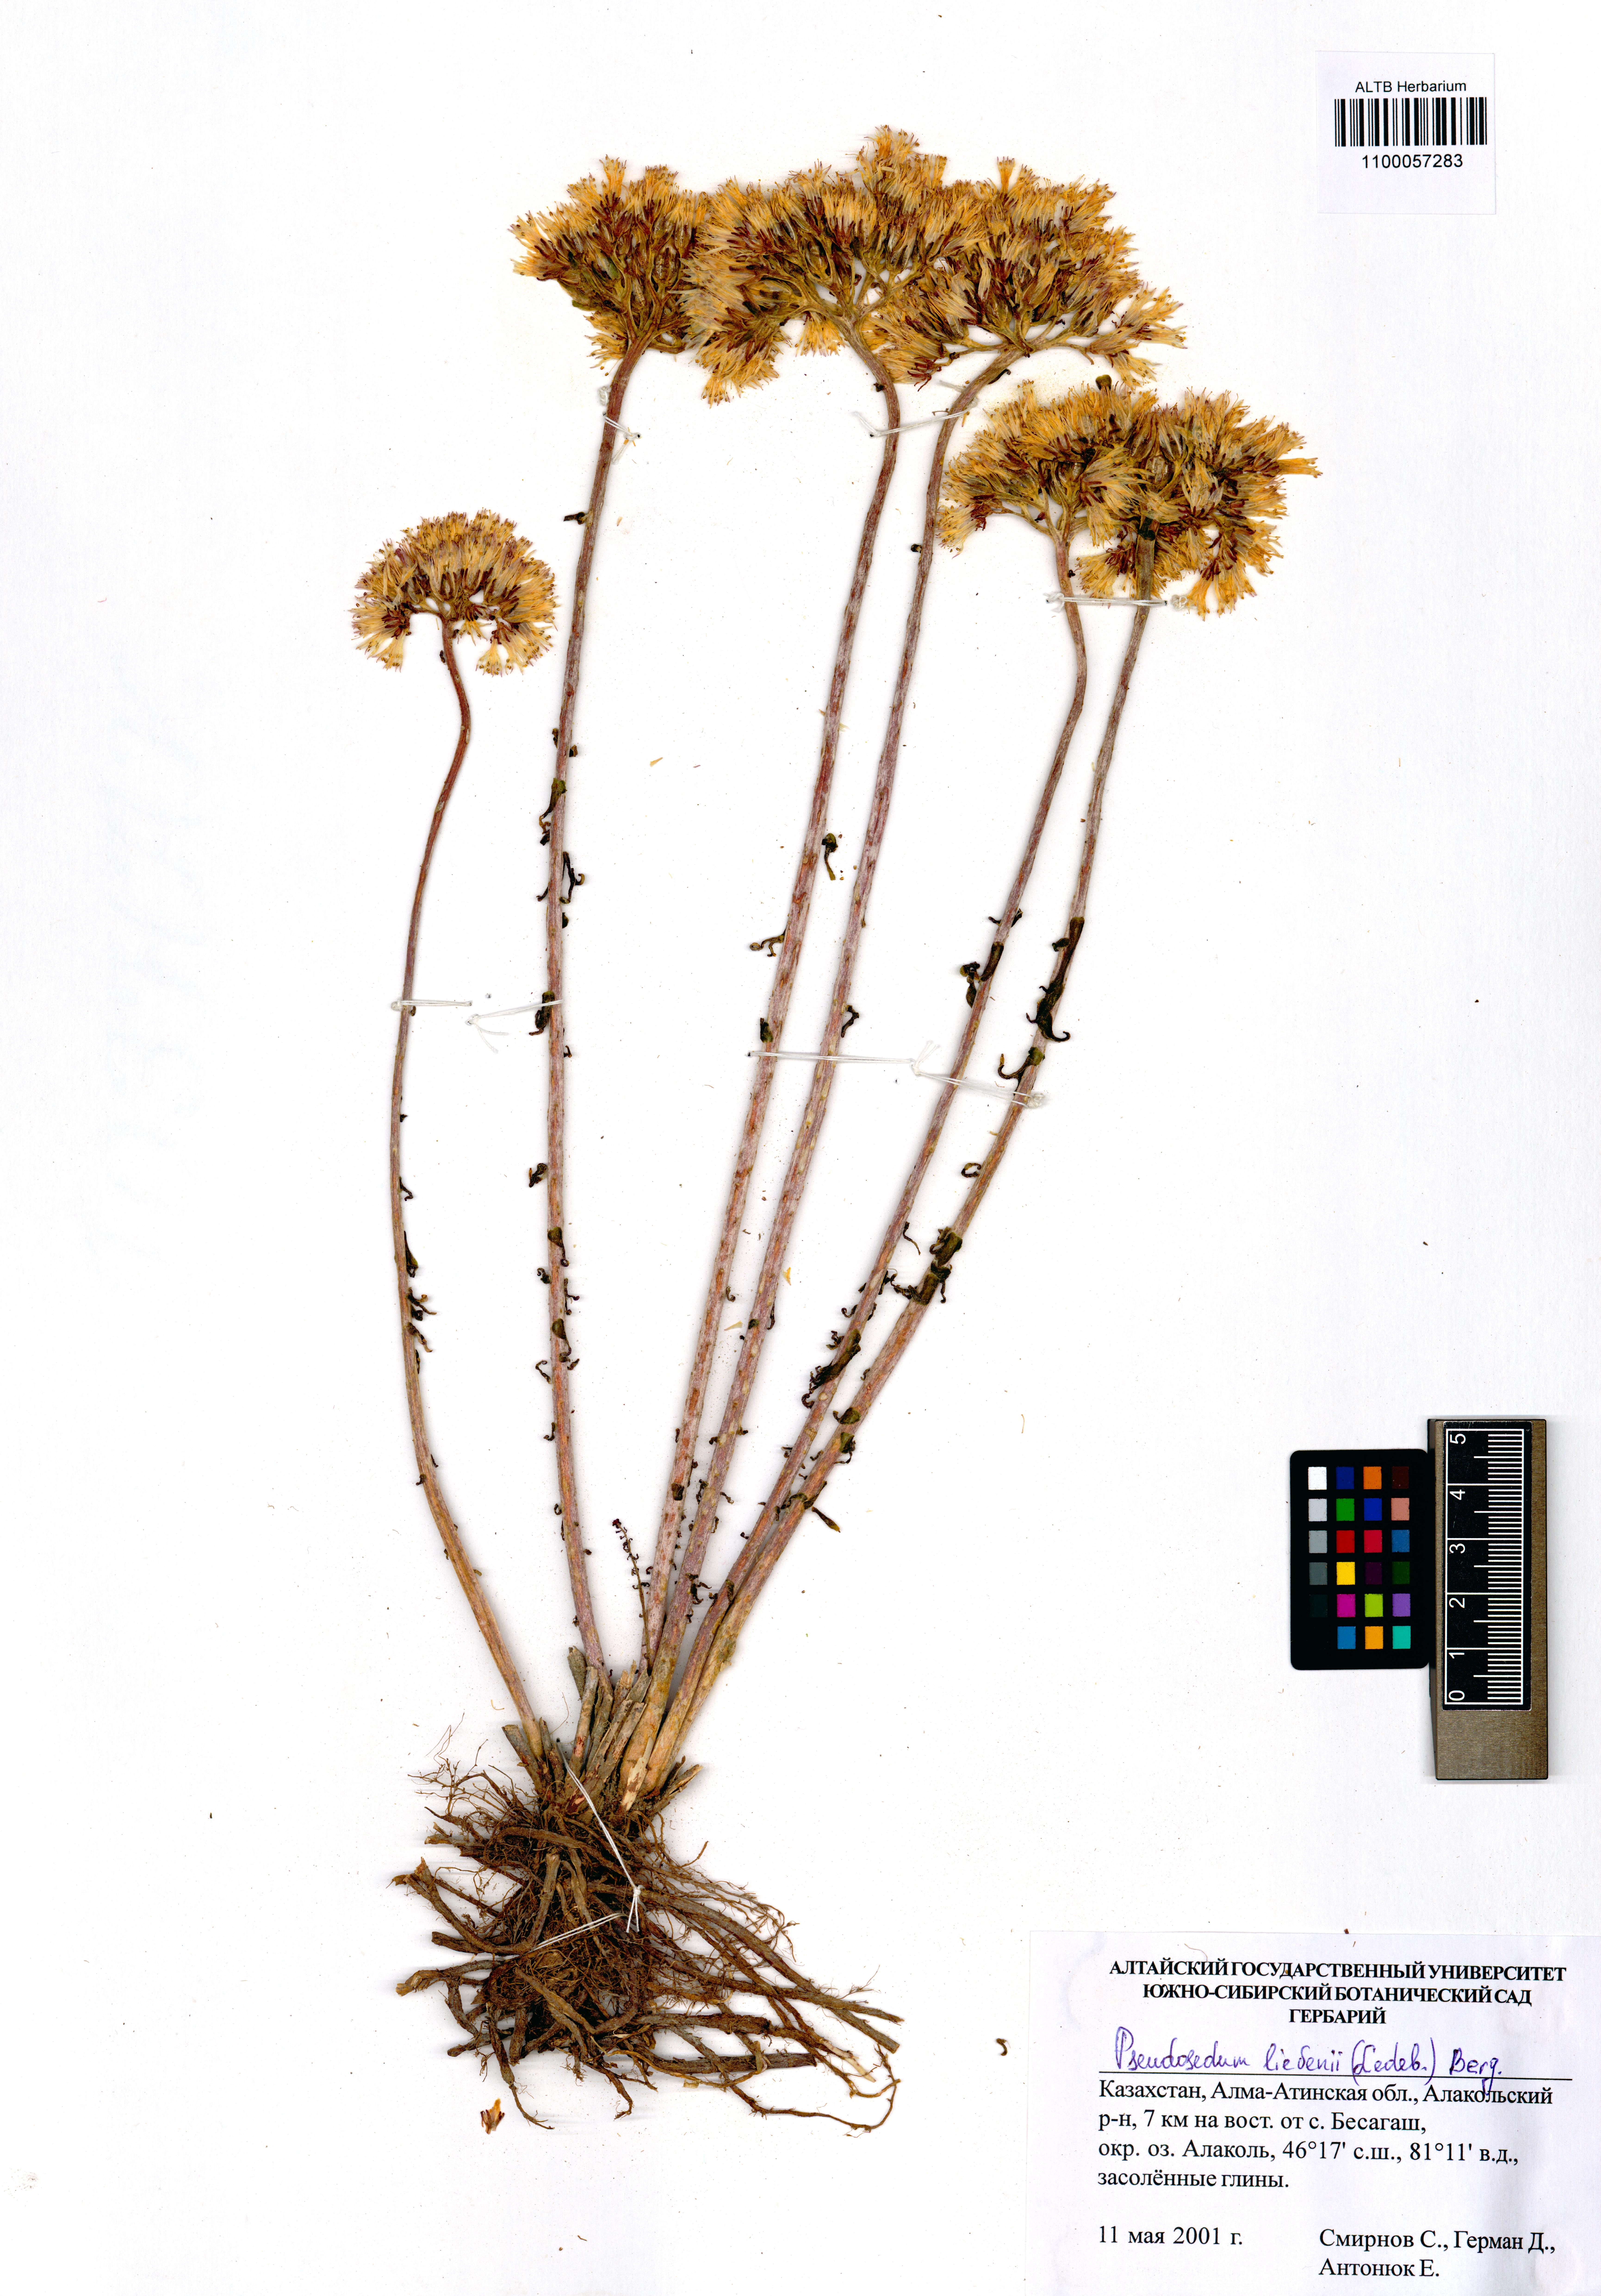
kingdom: Plantae
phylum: Tracheophyta
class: Magnoliopsida
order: Saxifragales
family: Crassulaceae
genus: Pseudosedum
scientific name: Pseudosedum lievenii
